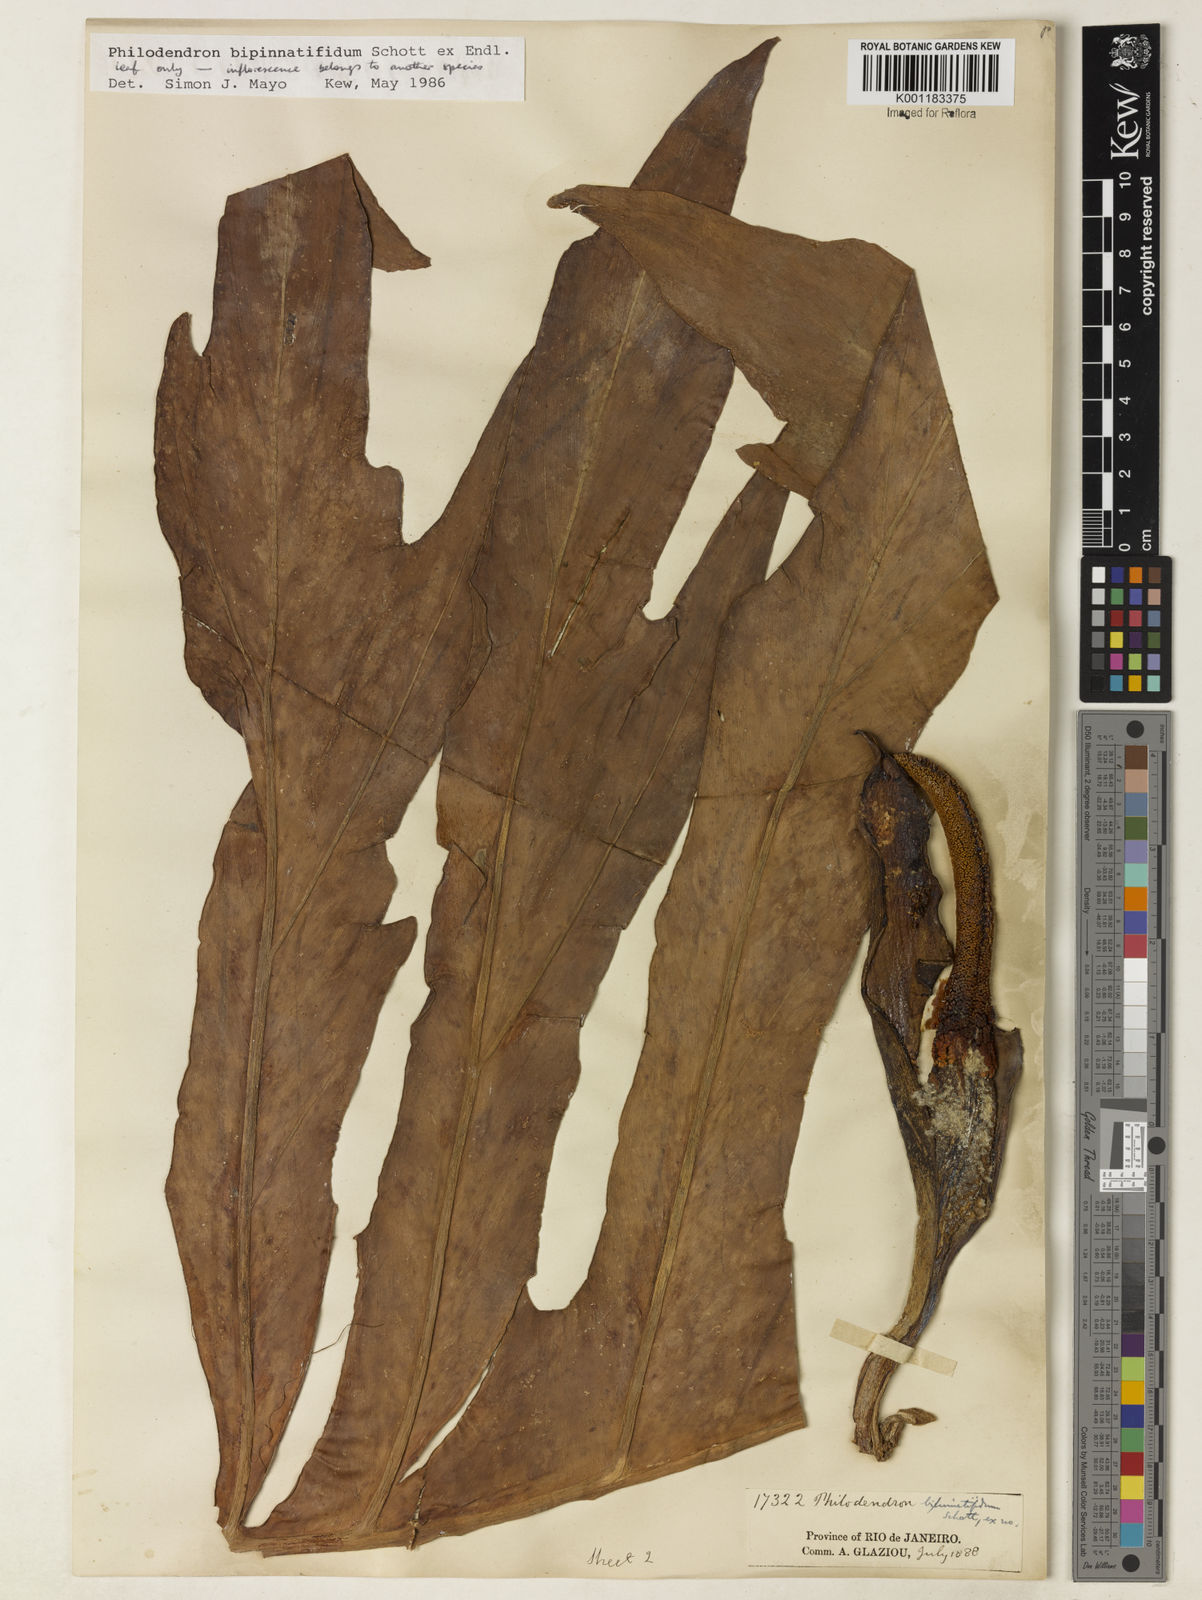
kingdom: Plantae
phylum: Tracheophyta
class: Liliopsida
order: Alismatales
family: Araceae
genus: Philodendron
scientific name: Philodendron
